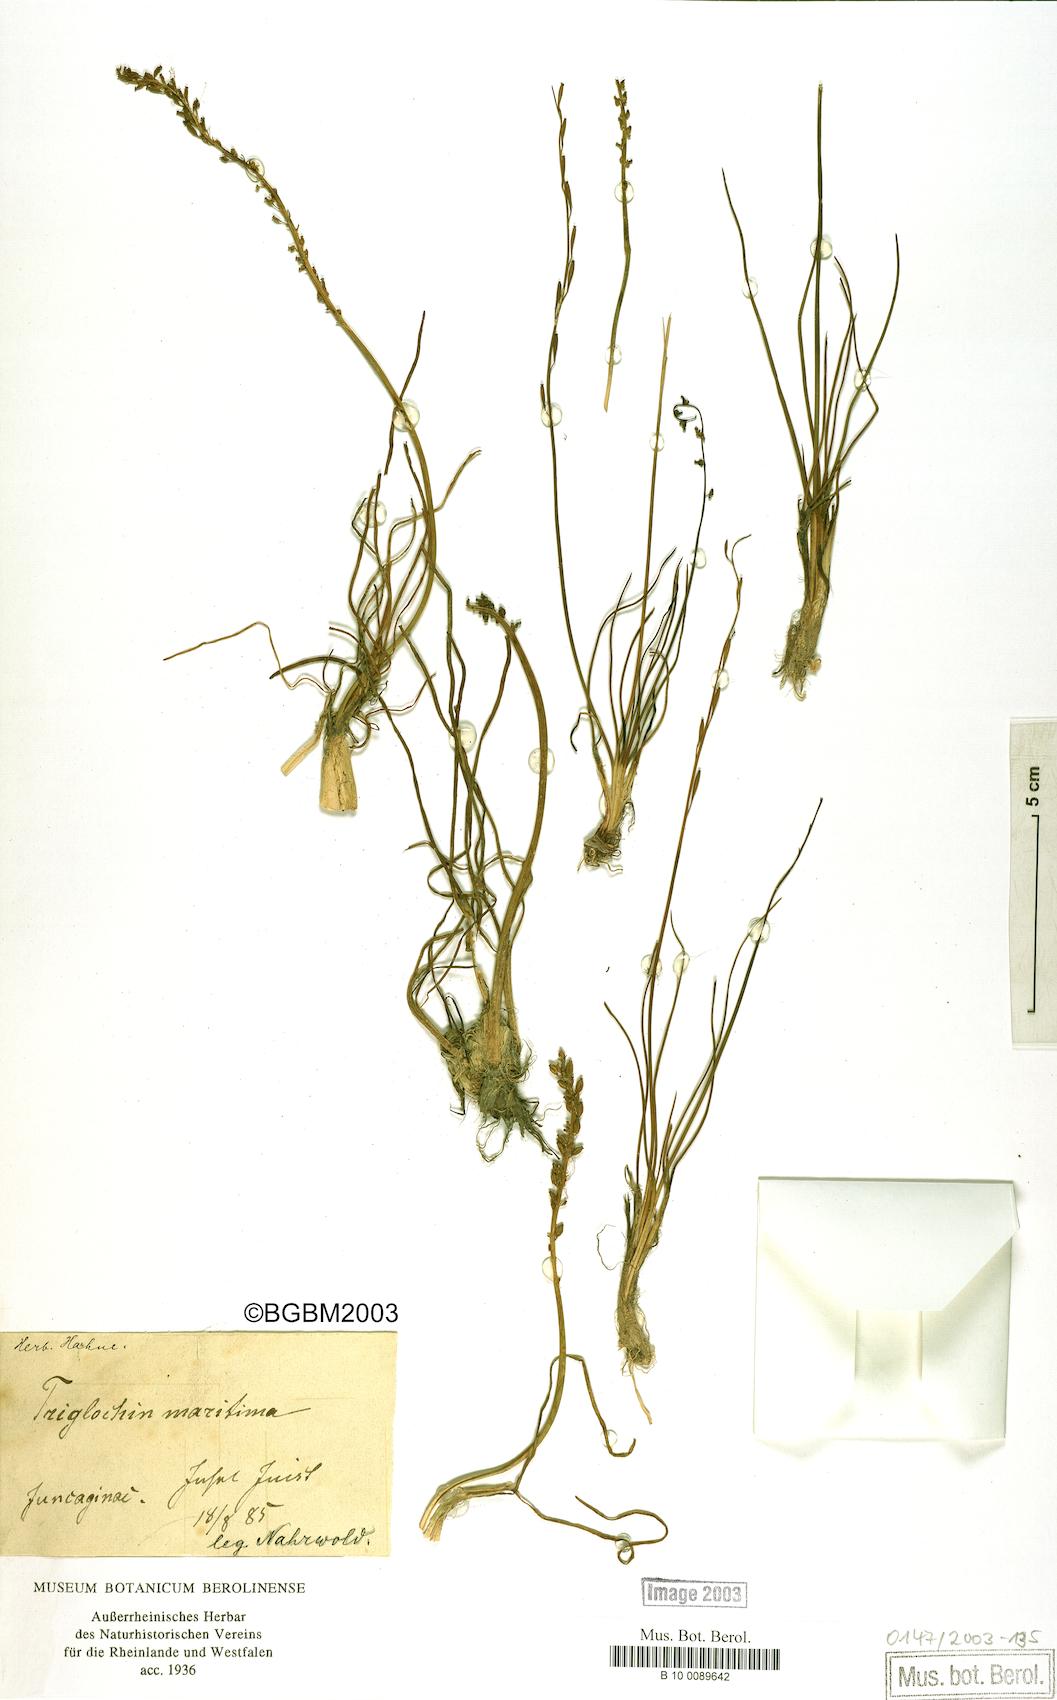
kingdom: Plantae
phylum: Tracheophyta
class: Liliopsida
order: Alismatales
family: Juncaginaceae
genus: Triglochin
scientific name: Triglochin maritima
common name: Sea arrowgrass
